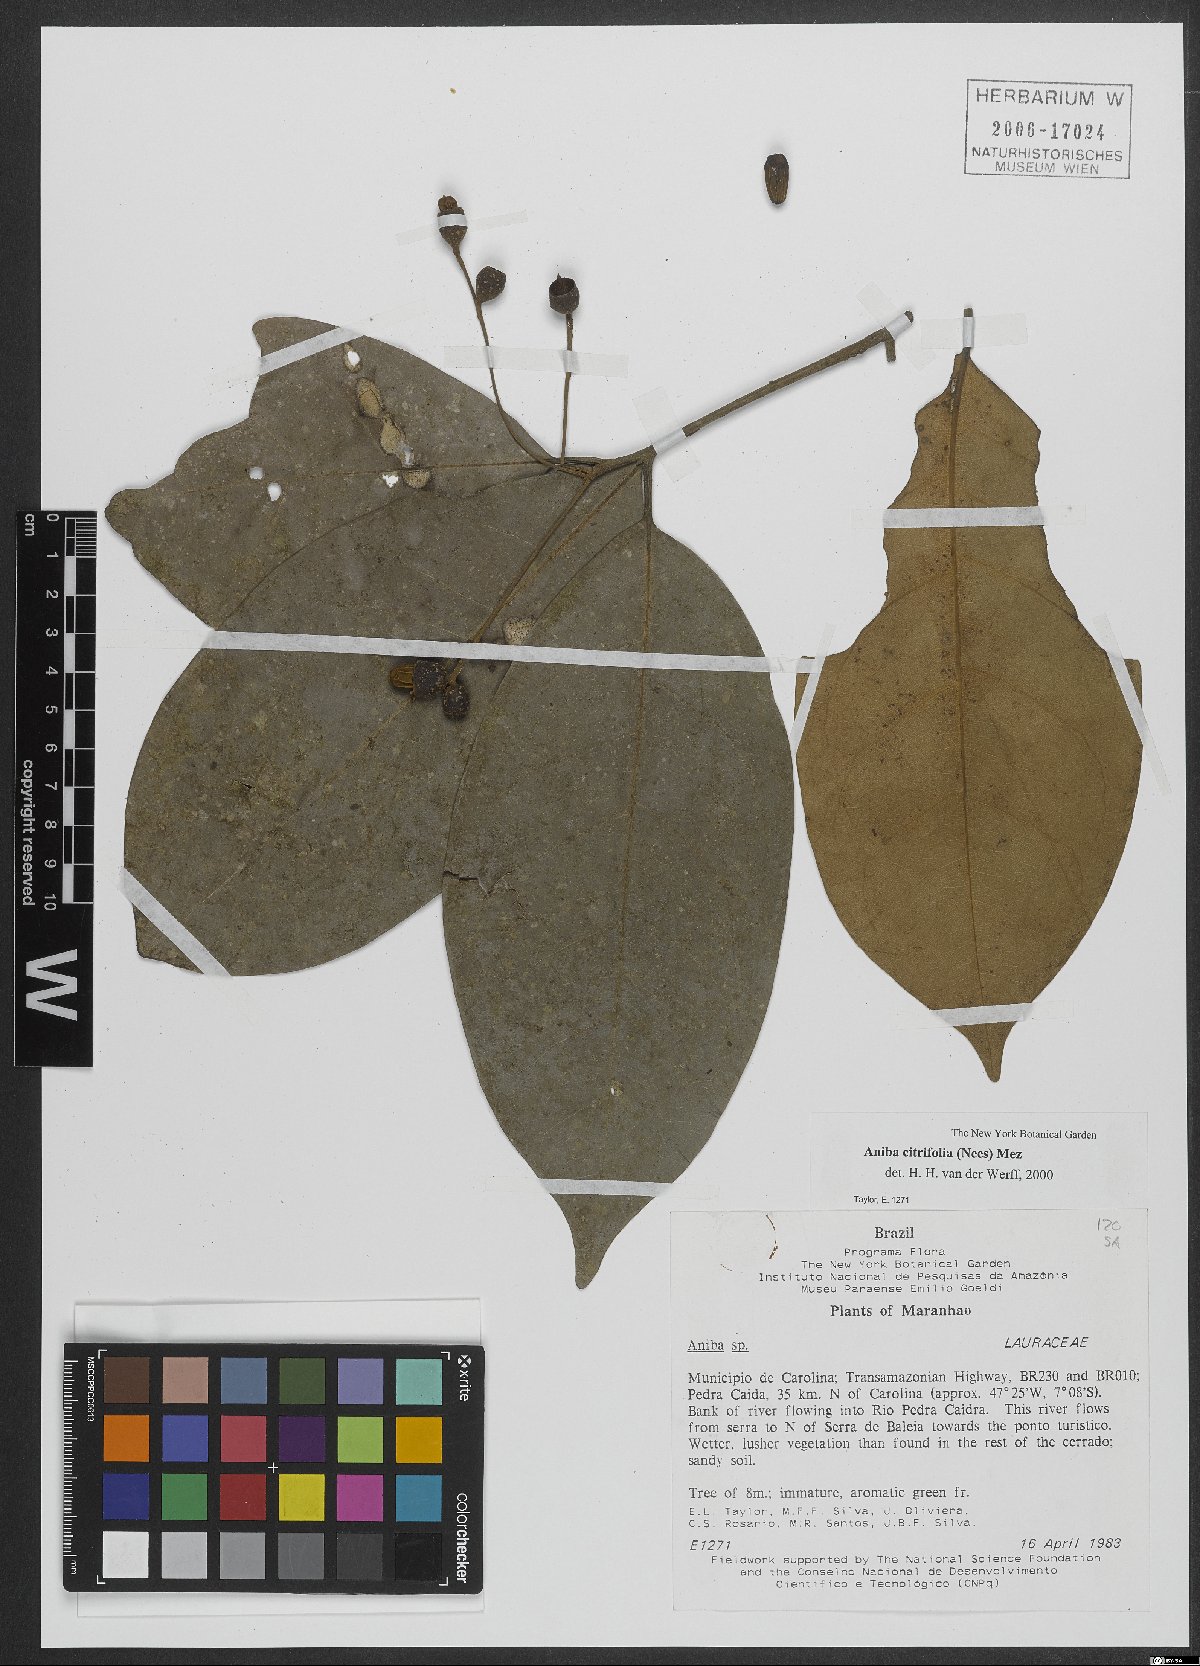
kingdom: Plantae
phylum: Tracheophyta
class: Magnoliopsida
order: Laurales
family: Lauraceae
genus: Aniba
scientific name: Aniba citrifolia
